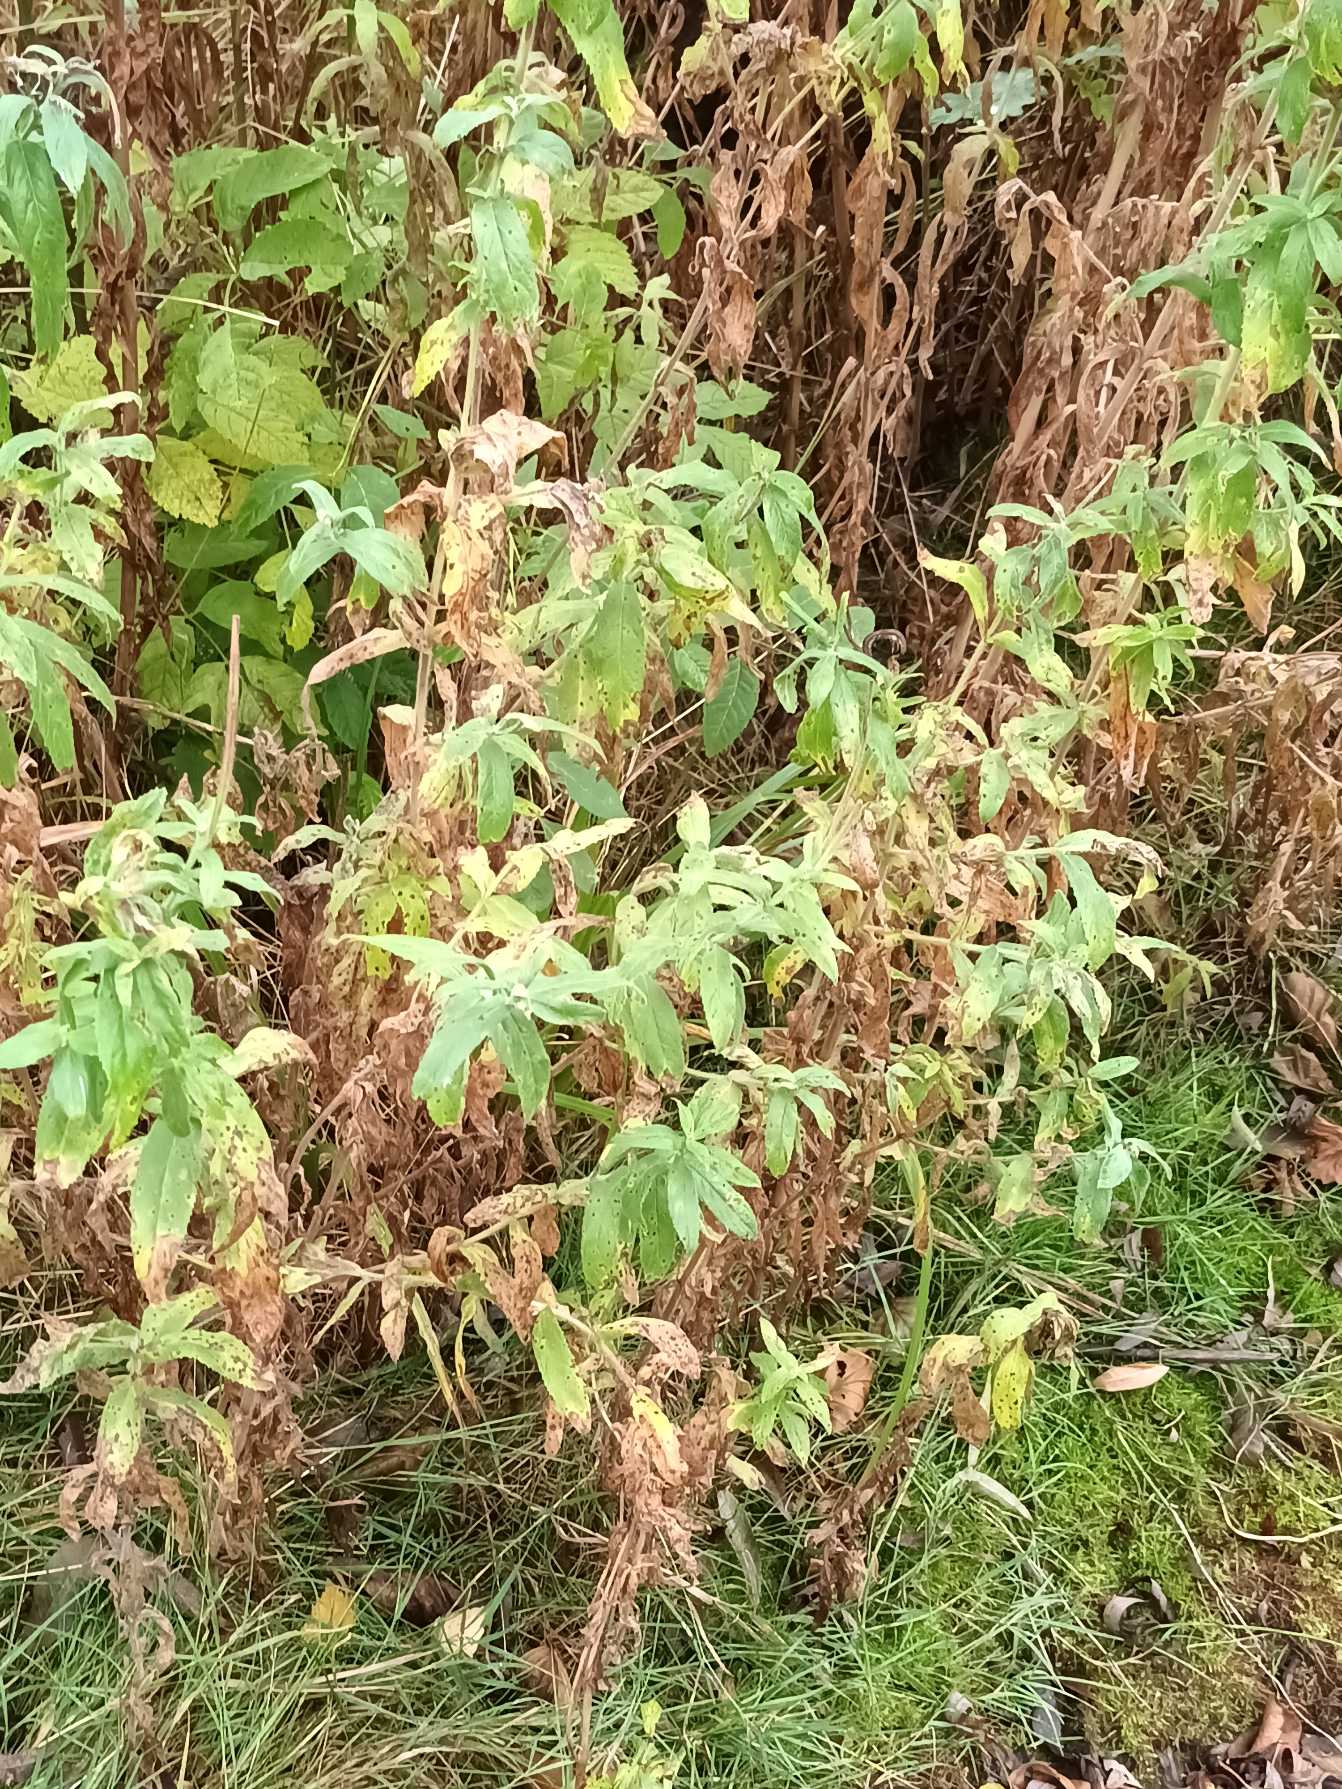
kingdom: Plantae
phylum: Tracheophyta
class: Magnoliopsida
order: Myrtales
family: Onagraceae
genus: Epilobium
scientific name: Epilobium hirsutum
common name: Lådden dueurt
